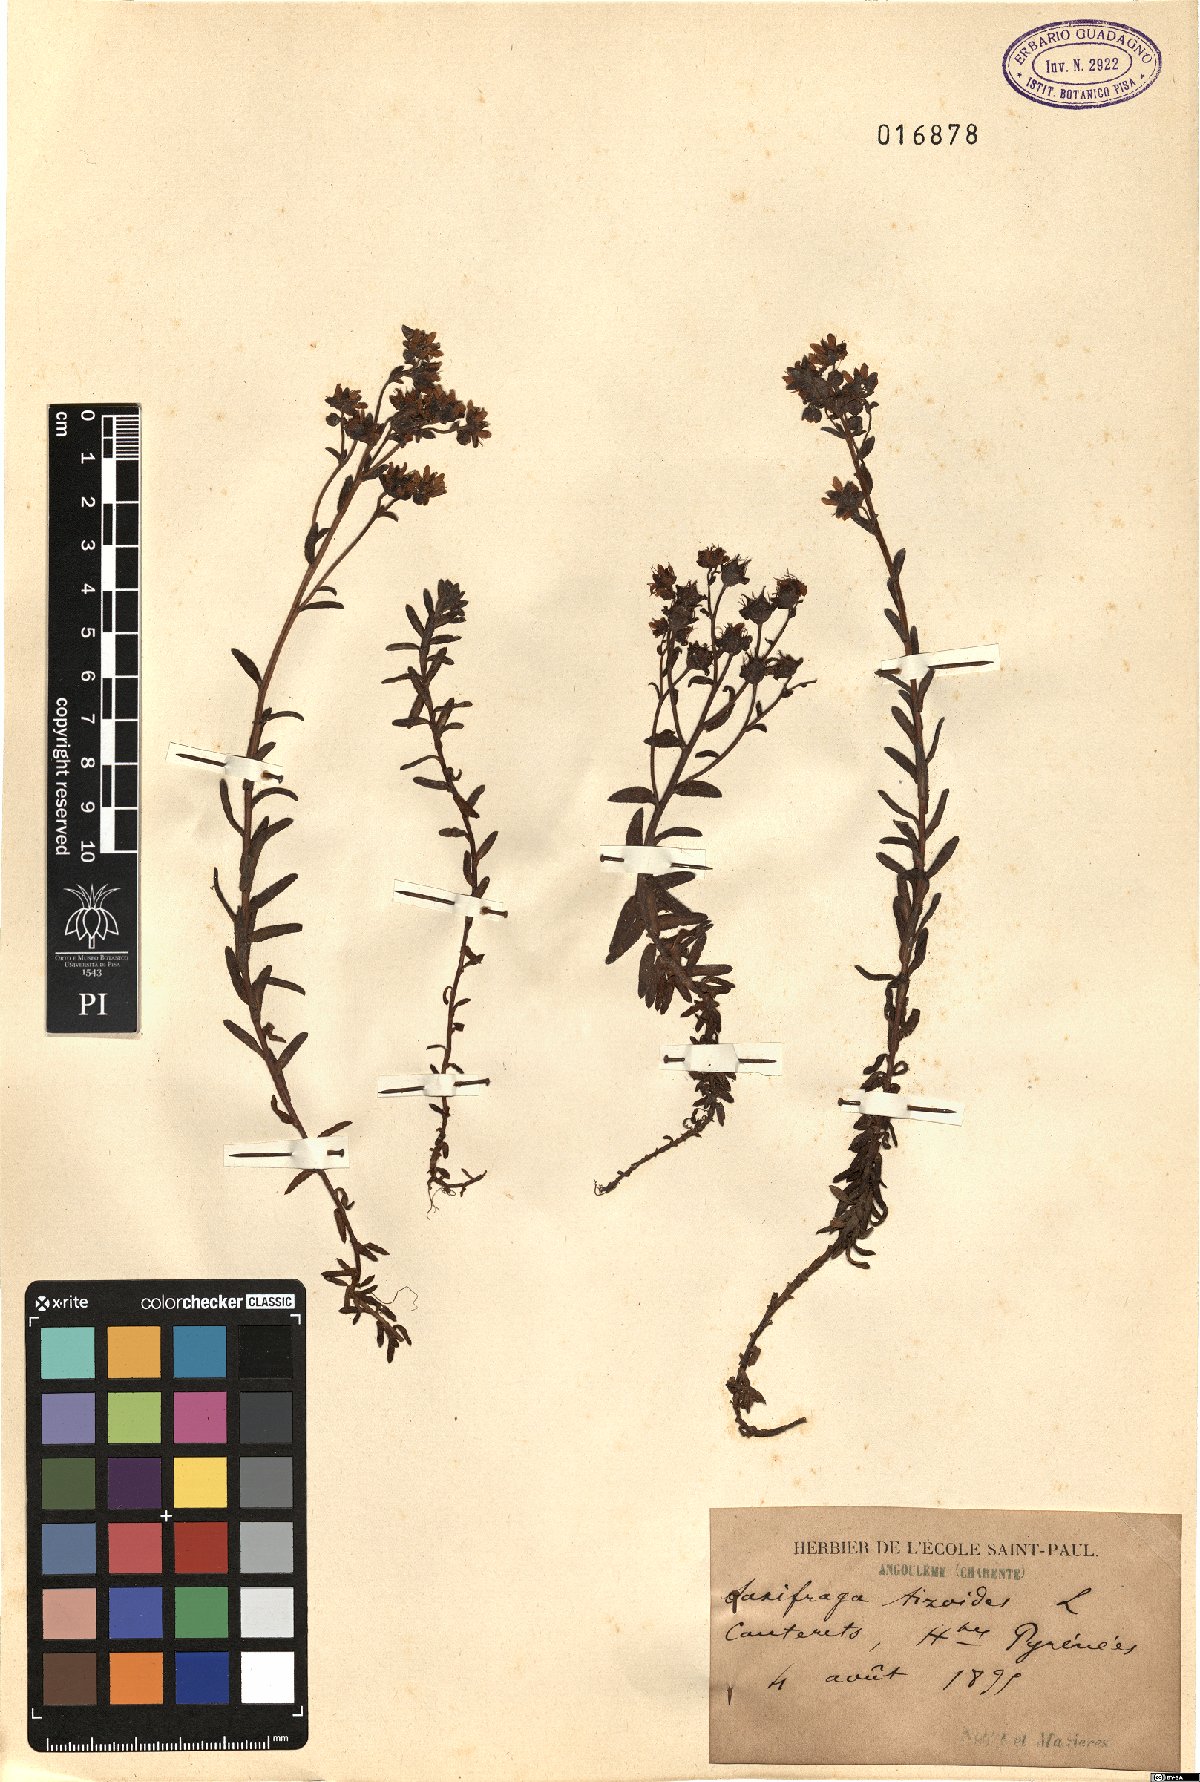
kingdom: Plantae
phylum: Tracheophyta
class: Magnoliopsida
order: Saxifragales
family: Saxifragaceae
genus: Saxifraga
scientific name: Saxifraga aizoides
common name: Yellow mountain saxifrage
